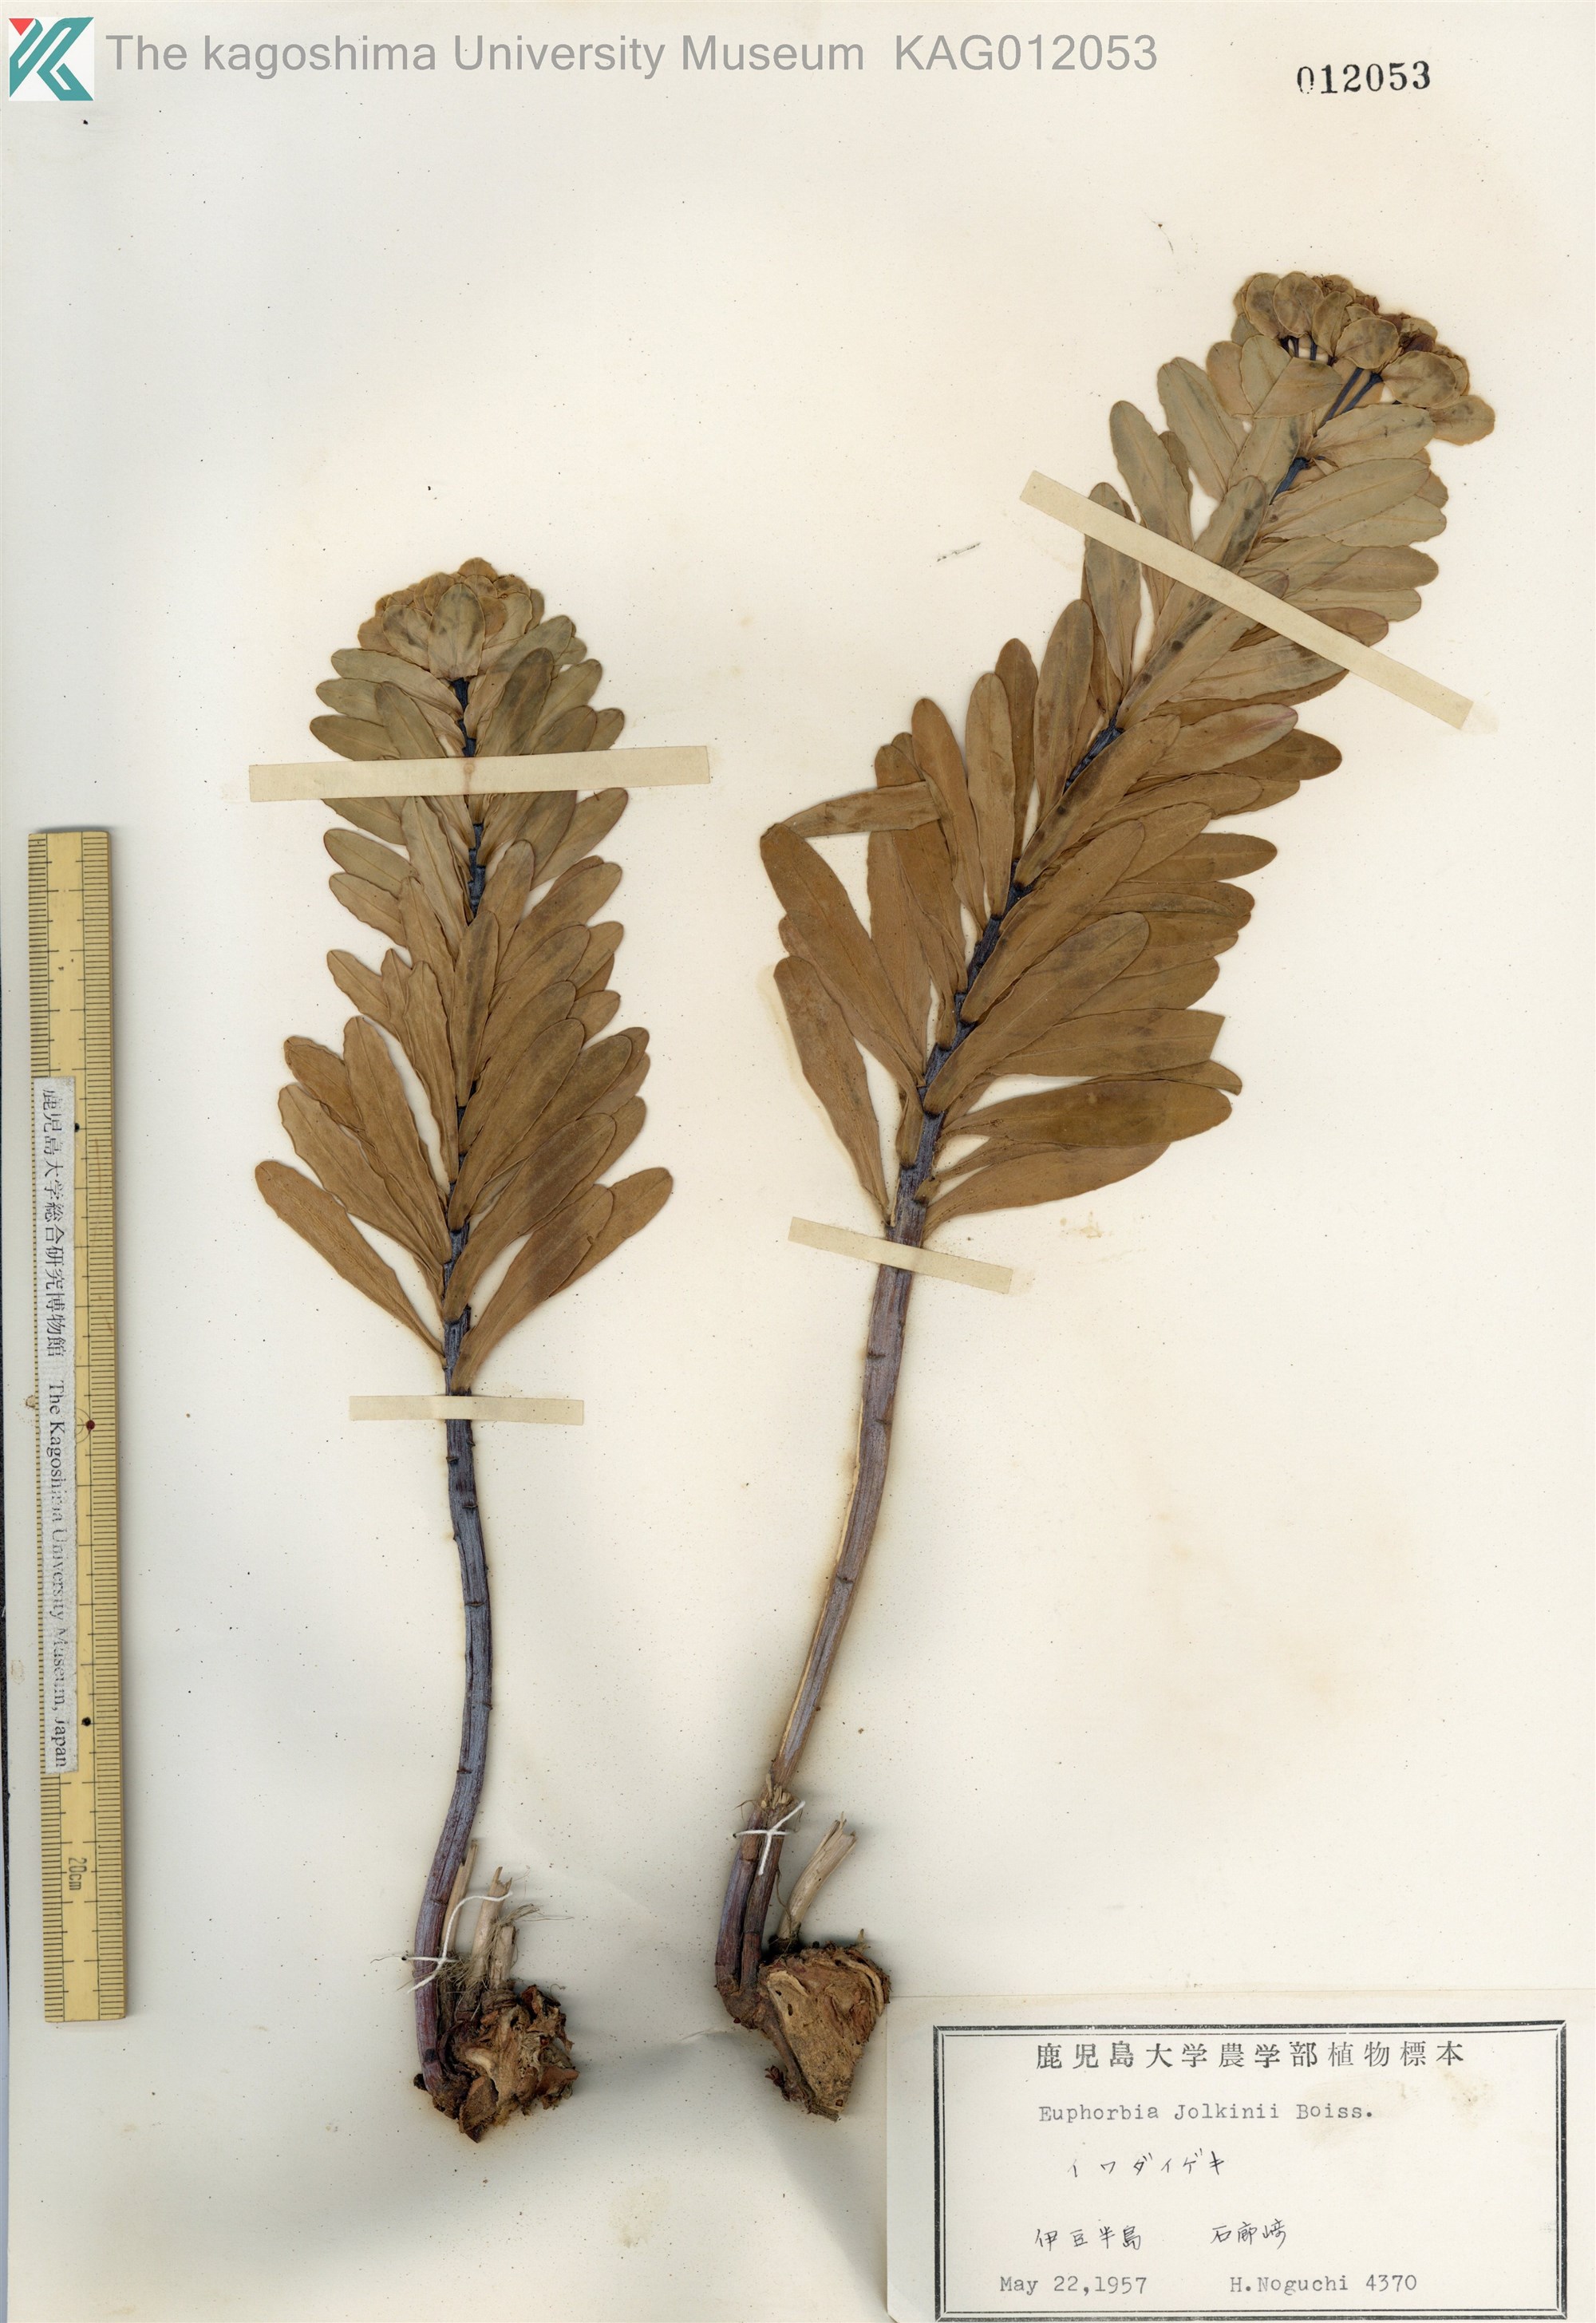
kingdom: Plantae
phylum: Tracheophyta
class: Magnoliopsida
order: Malpighiales
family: Euphorbiaceae
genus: Euphorbia
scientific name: Euphorbia jolkinii
